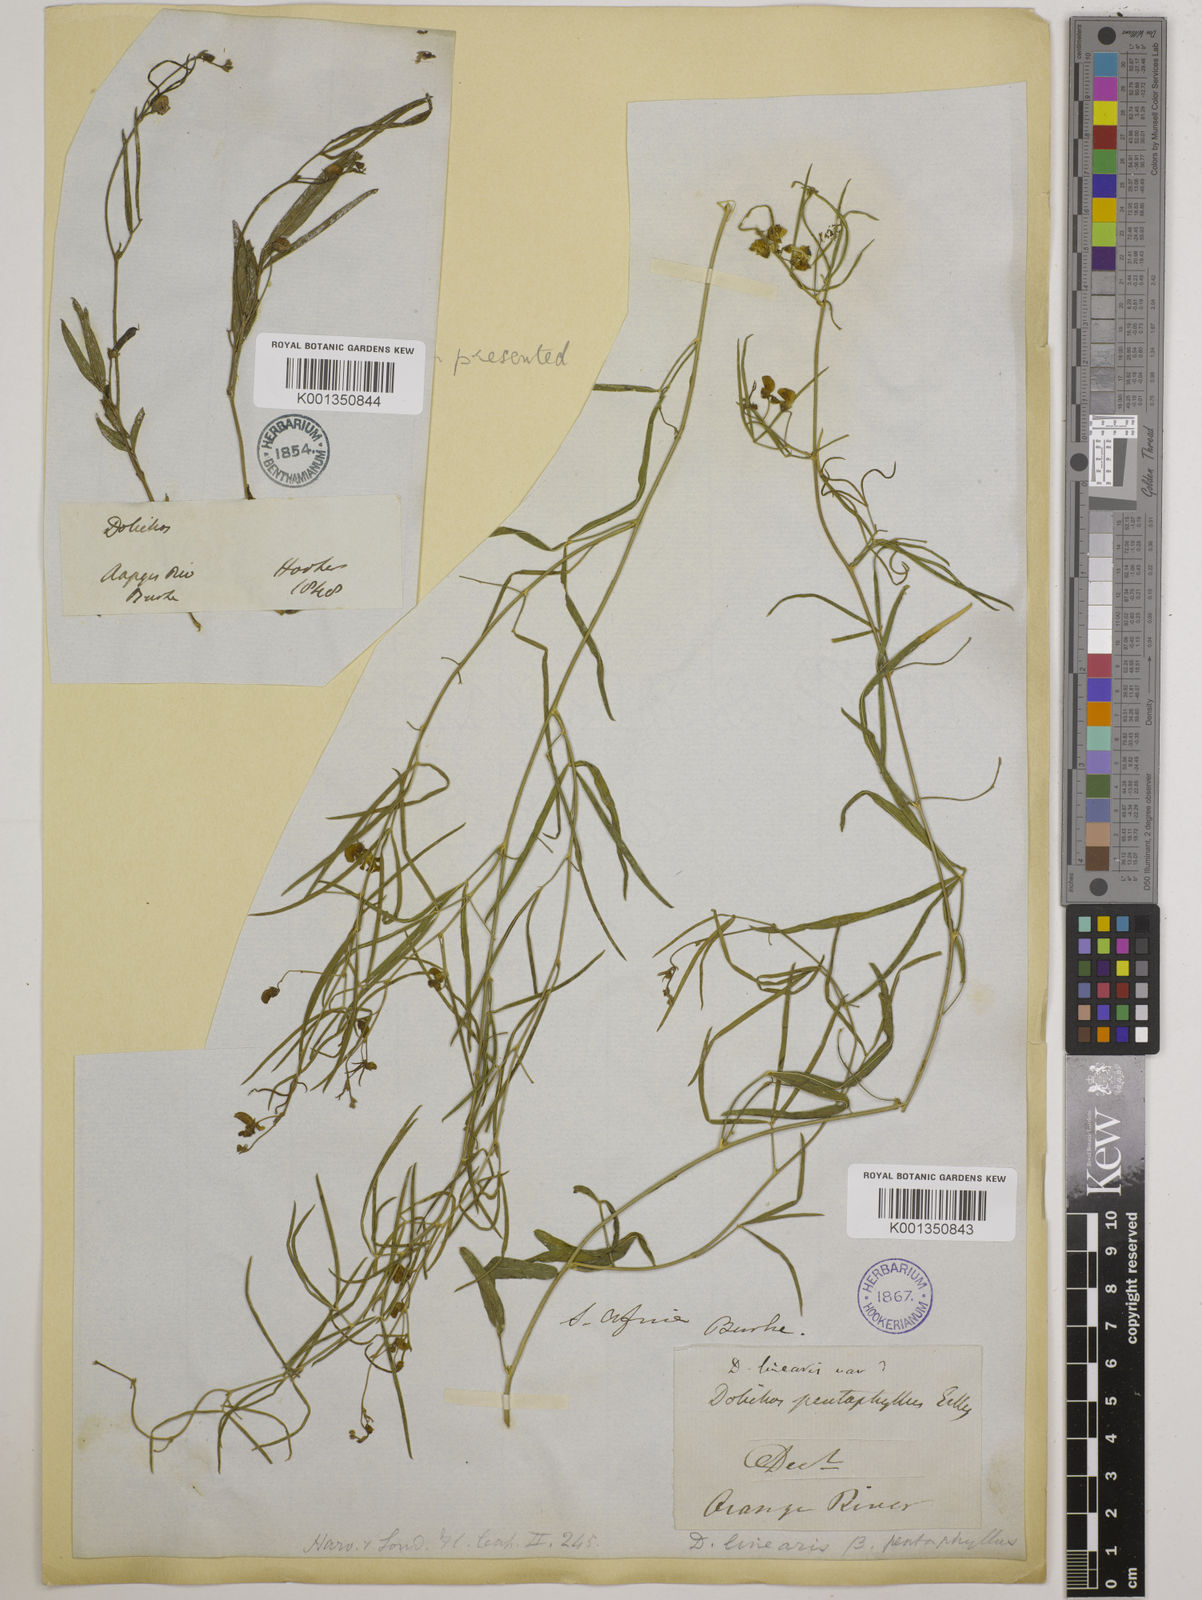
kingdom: Plantae
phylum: Tracheophyta
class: Magnoliopsida
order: Fabales
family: Fabaceae
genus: Dolichos
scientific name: Dolichos linearis
